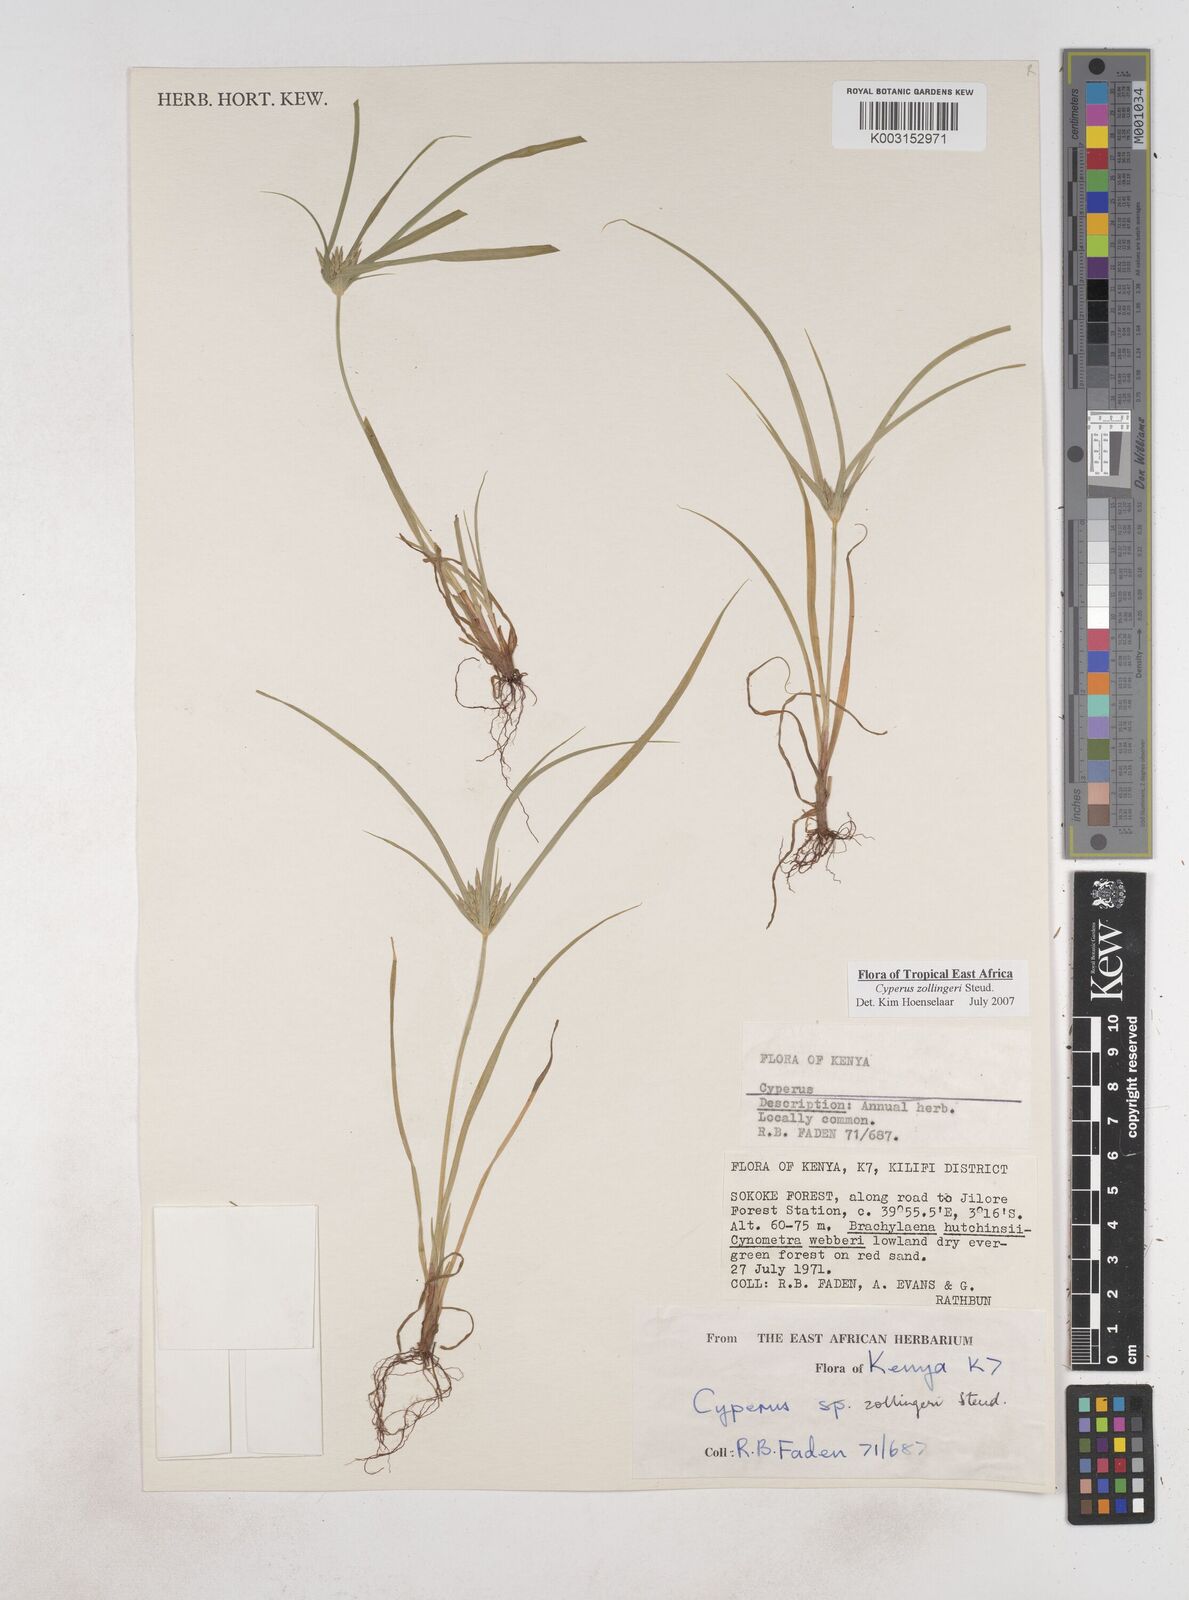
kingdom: Plantae
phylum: Tracheophyta
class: Liliopsida
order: Poales
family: Cyperaceae
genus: Cyperus
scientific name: Cyperus zollingerioides
